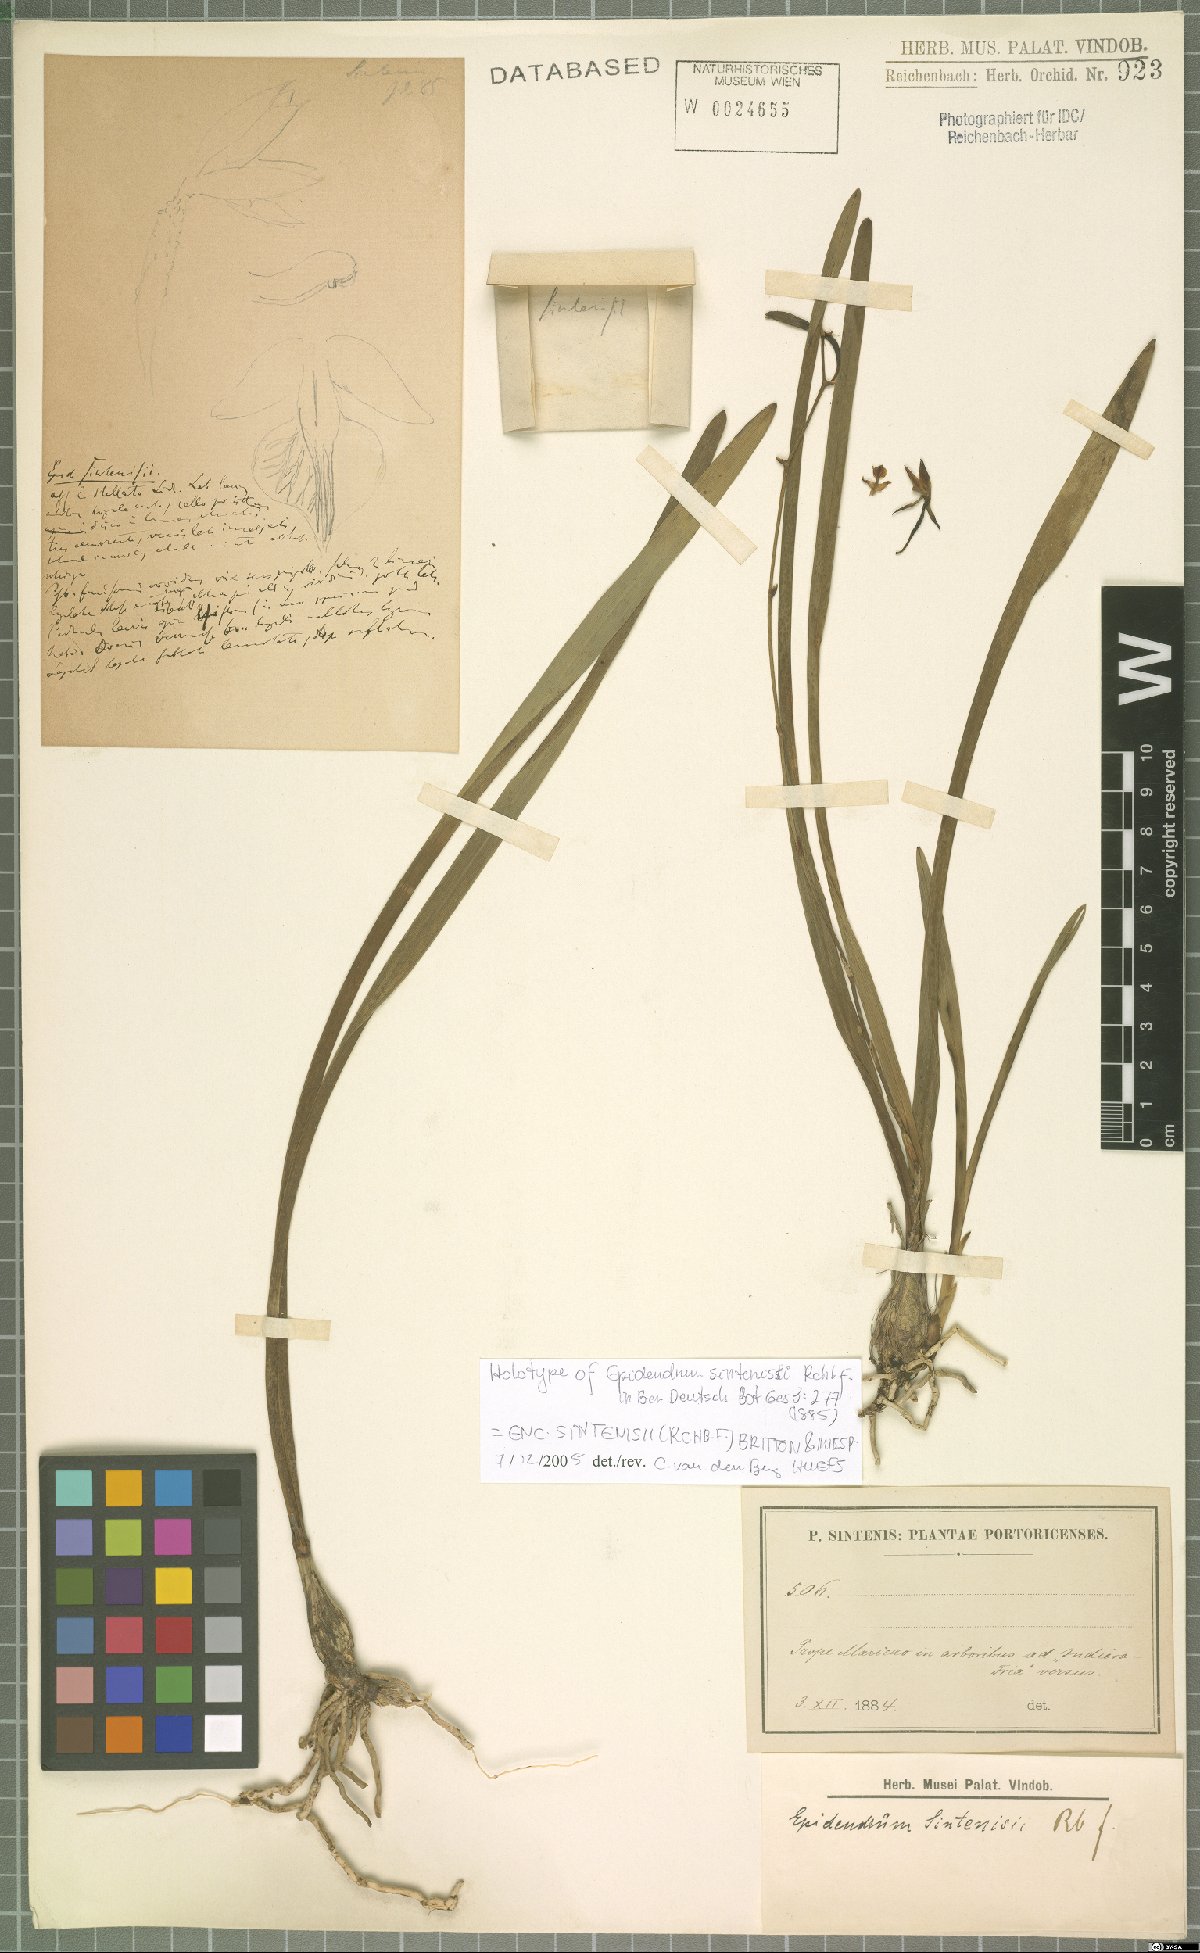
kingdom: Plantae
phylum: Tracheophyta
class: Liliopsida
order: Asparagales
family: Orchidaceae
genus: Encyclia
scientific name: Encyclia gravida
